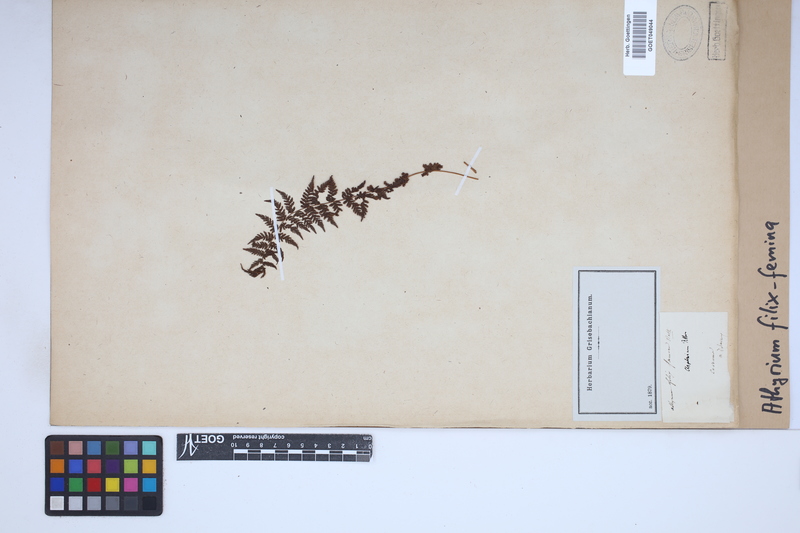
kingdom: Plantae
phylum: Tracheophyta
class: Polypodiopsida
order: Polypodiales
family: Athyriaceae
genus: Athyrium
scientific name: Athyrium filix-femina
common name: Lady fern
